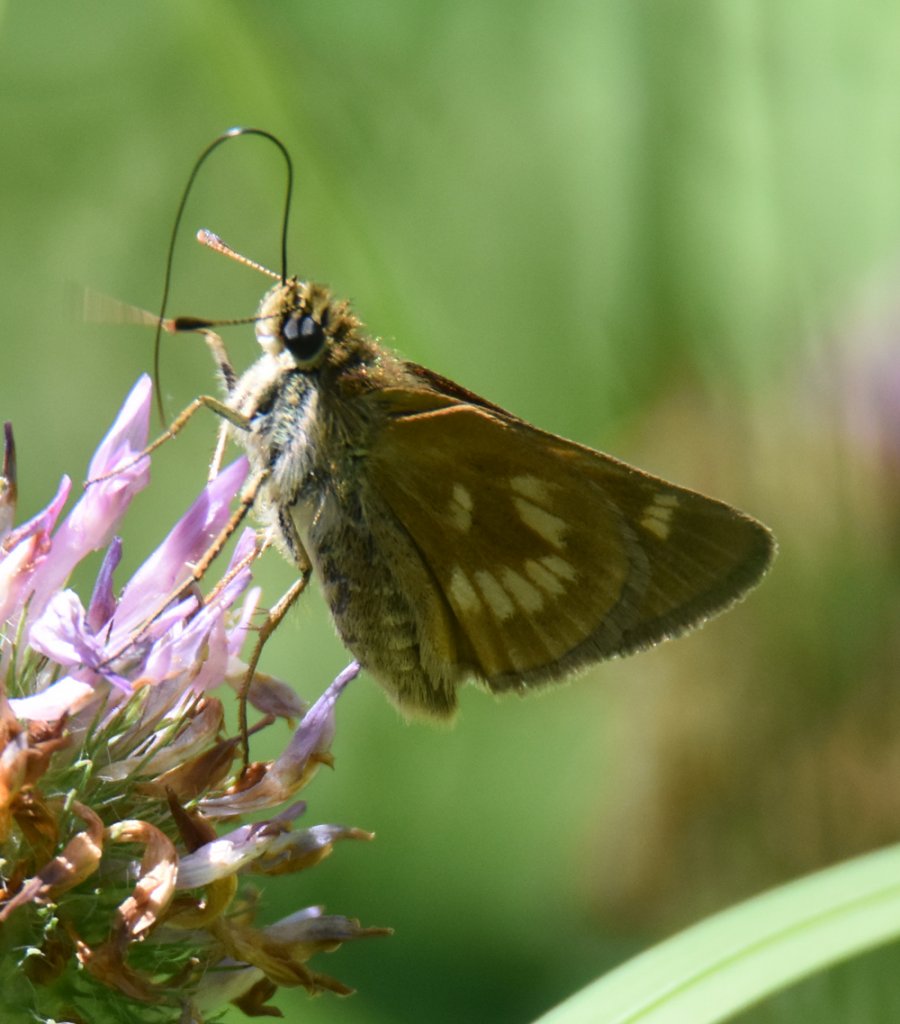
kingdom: Animalia
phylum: Arthropoda
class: Insecta
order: Lepidoptera
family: Hesperiidae
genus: Polites
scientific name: Polites
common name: Long Dash Skipper
